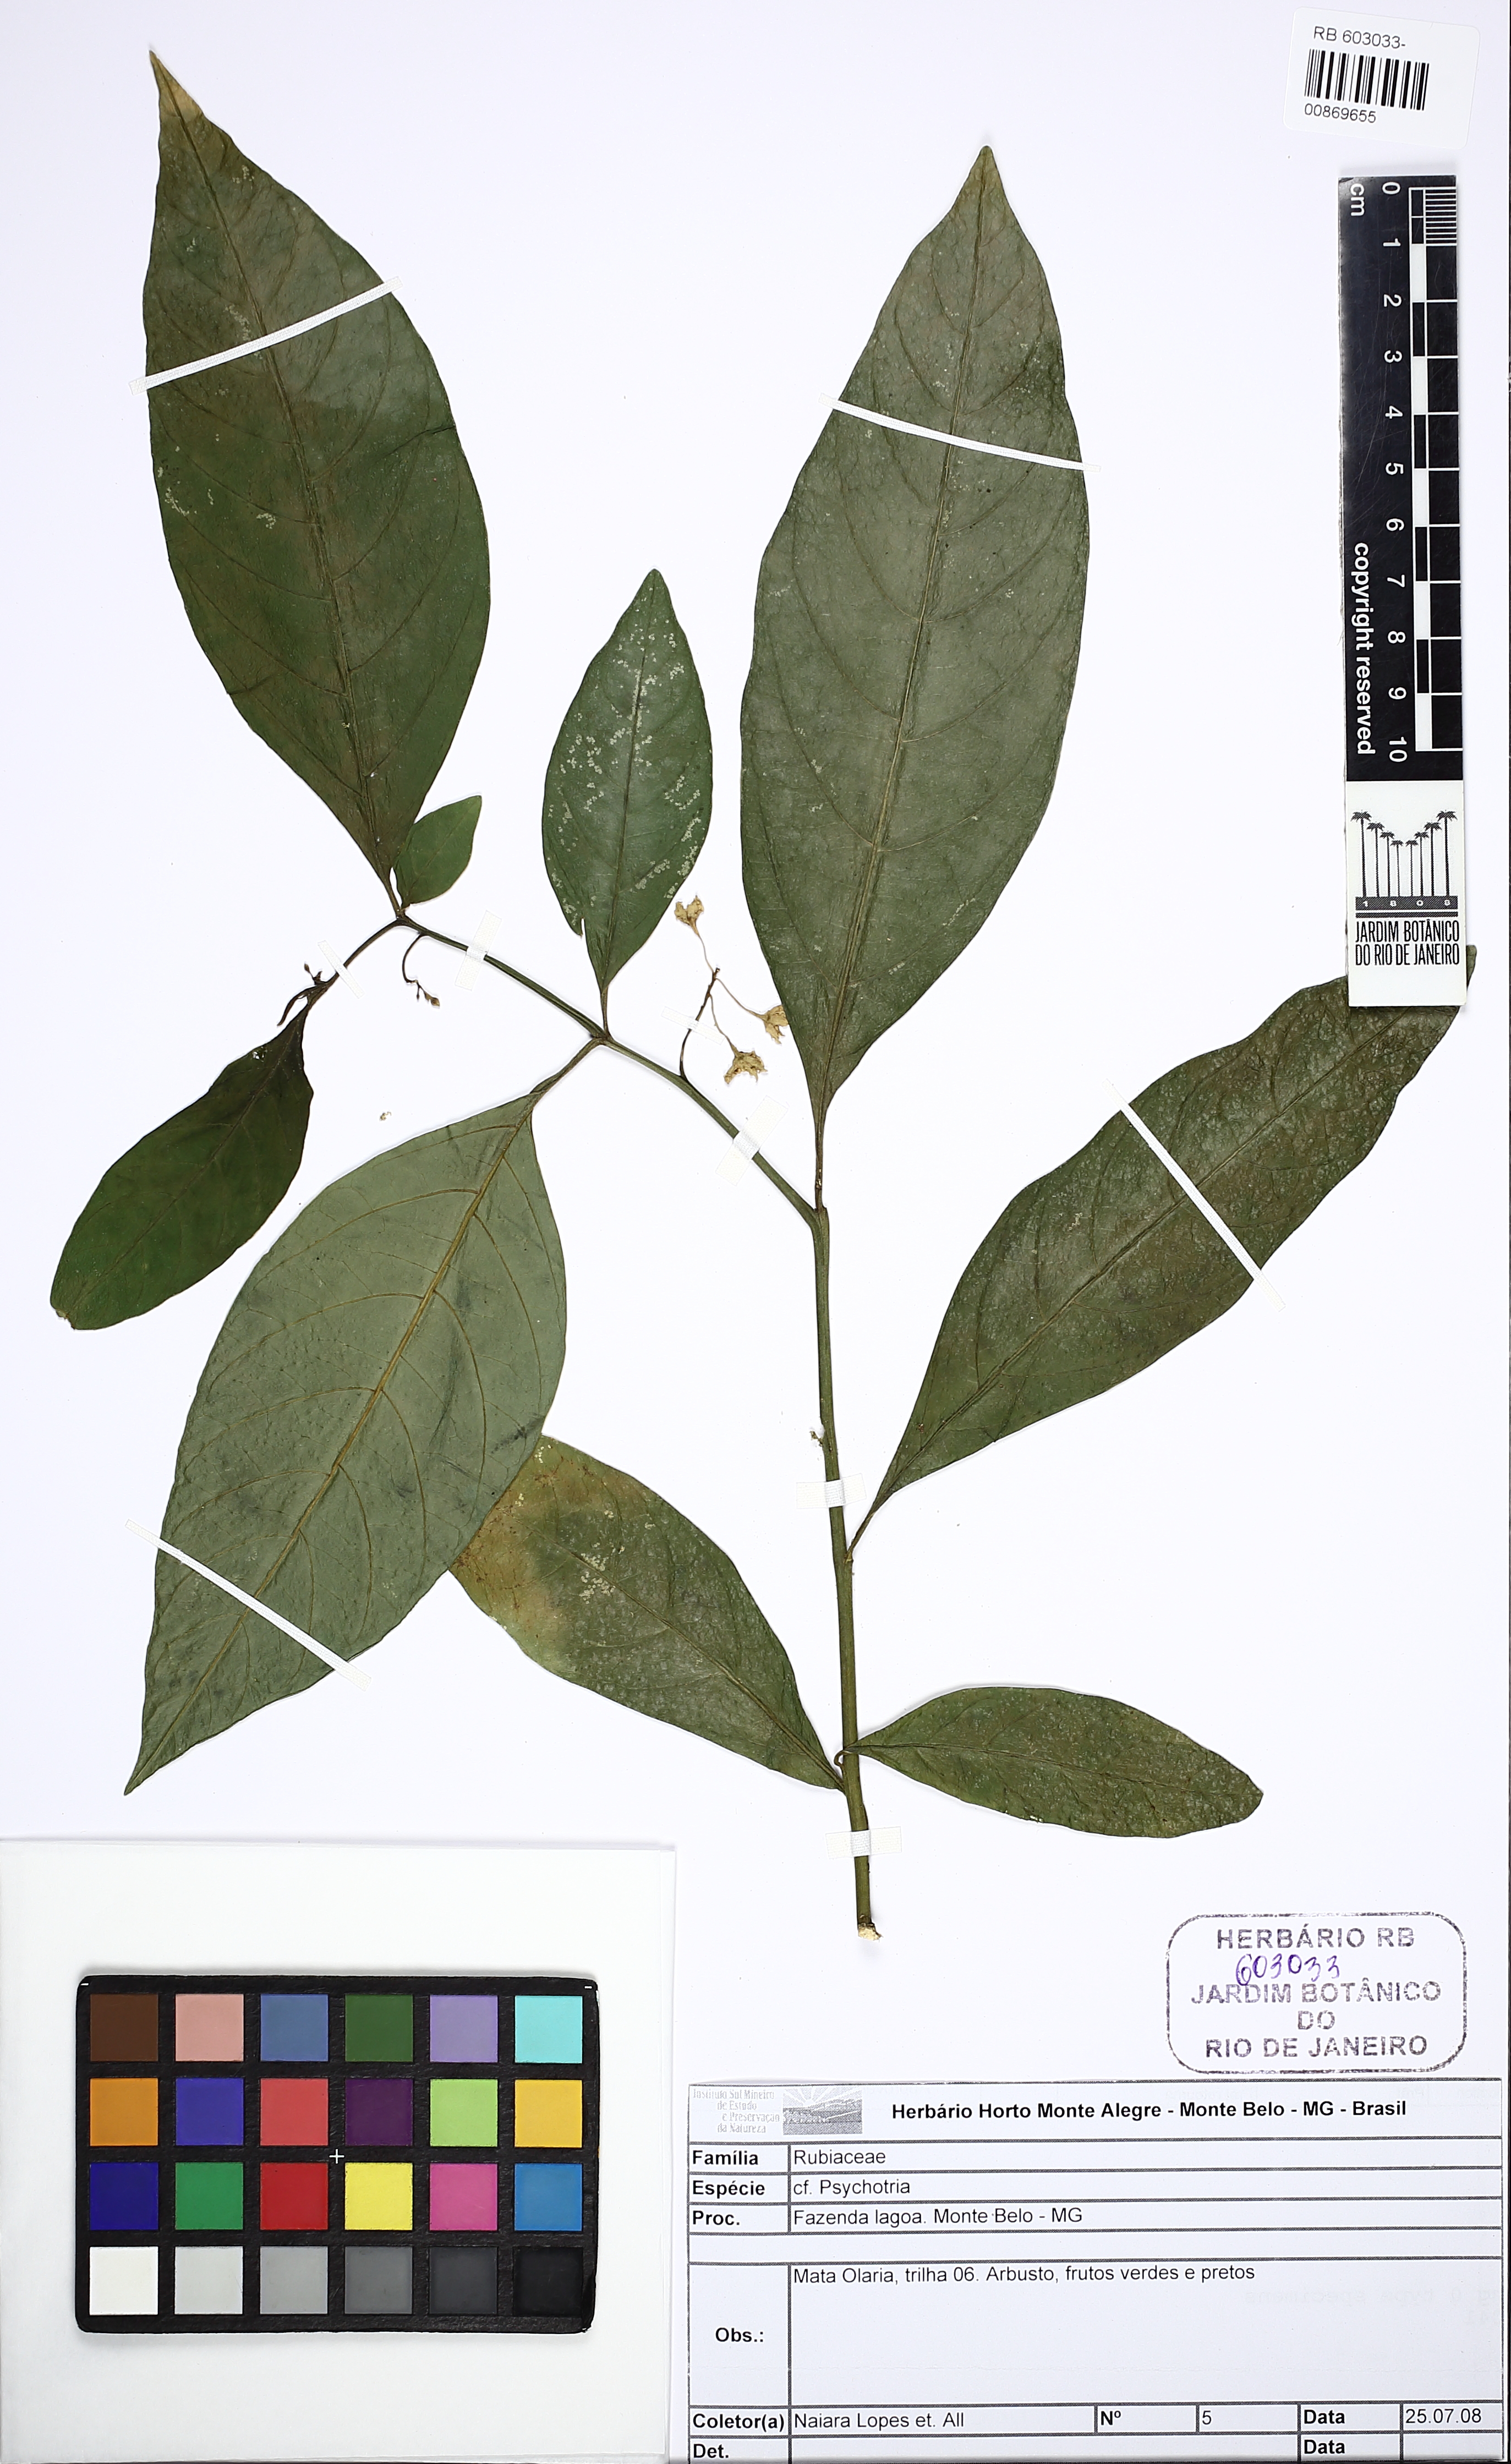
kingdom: Plantae
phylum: Tracheophyta
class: Magnoliopsida
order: Solanales
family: Solanaceae
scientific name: Solanaceae
